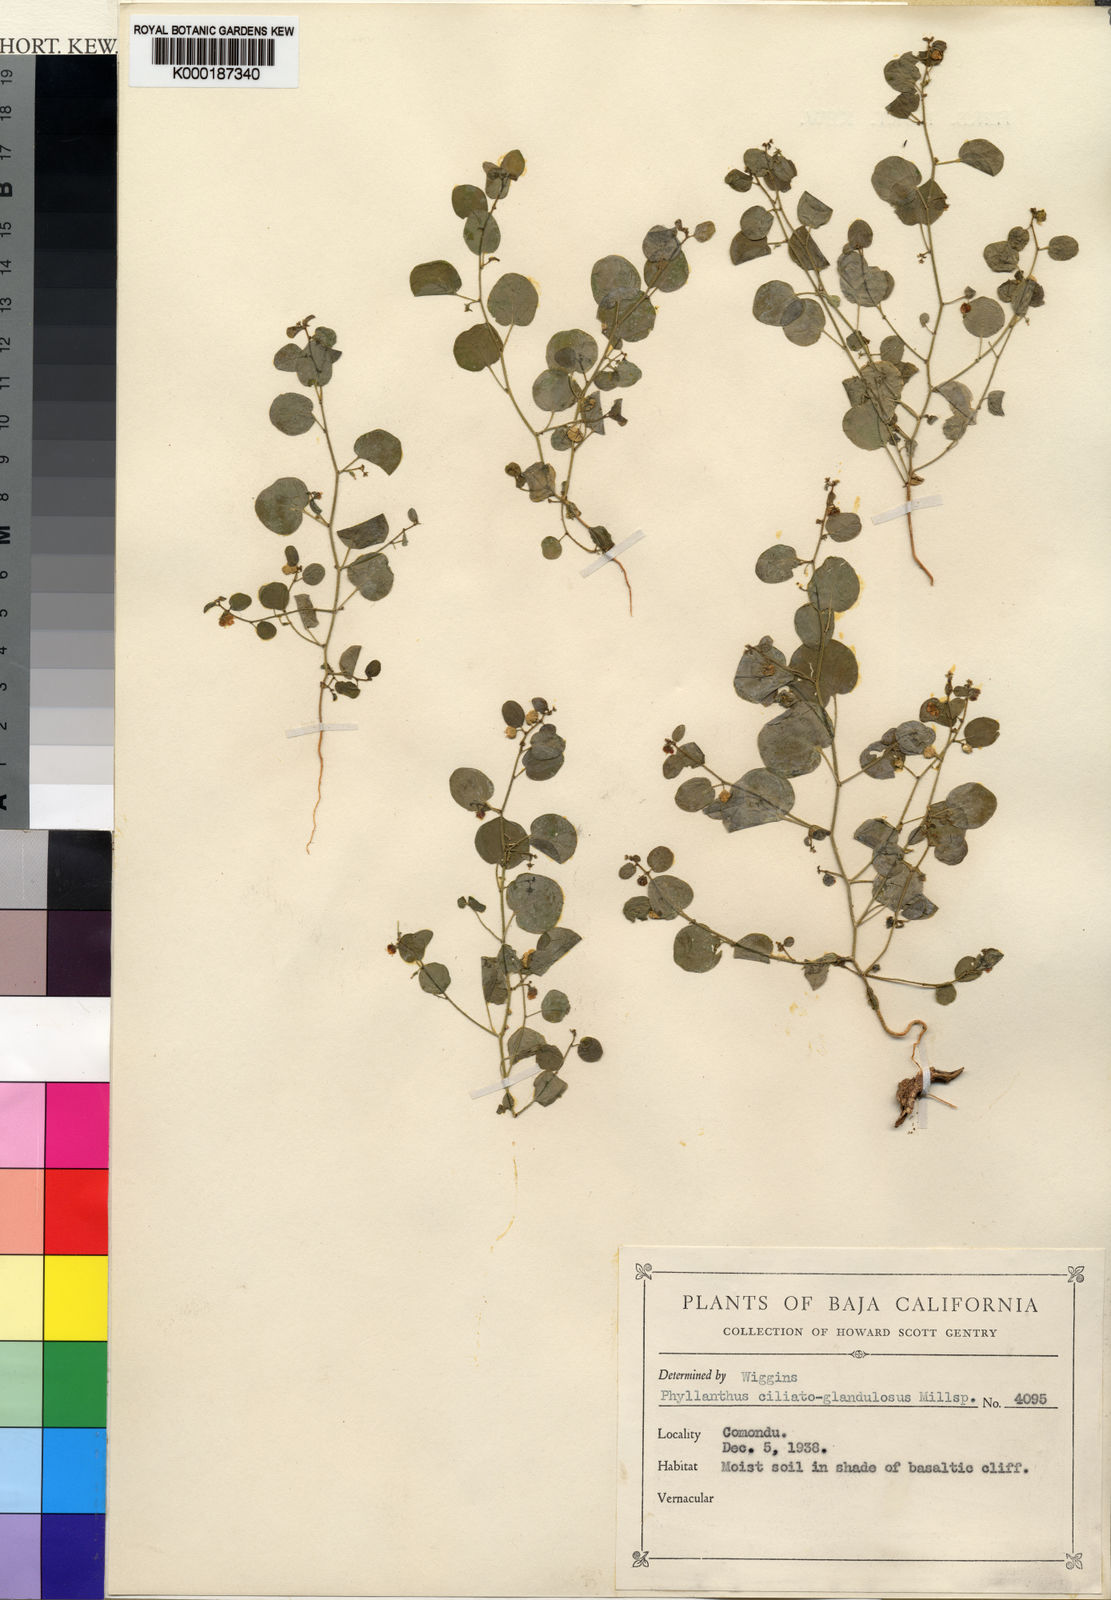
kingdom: Plantae
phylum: Tracheophyta
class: Magnoliopsida
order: Malpighiales
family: Phyllanthaceae
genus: Andrachne
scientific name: Andrachne microphylla
